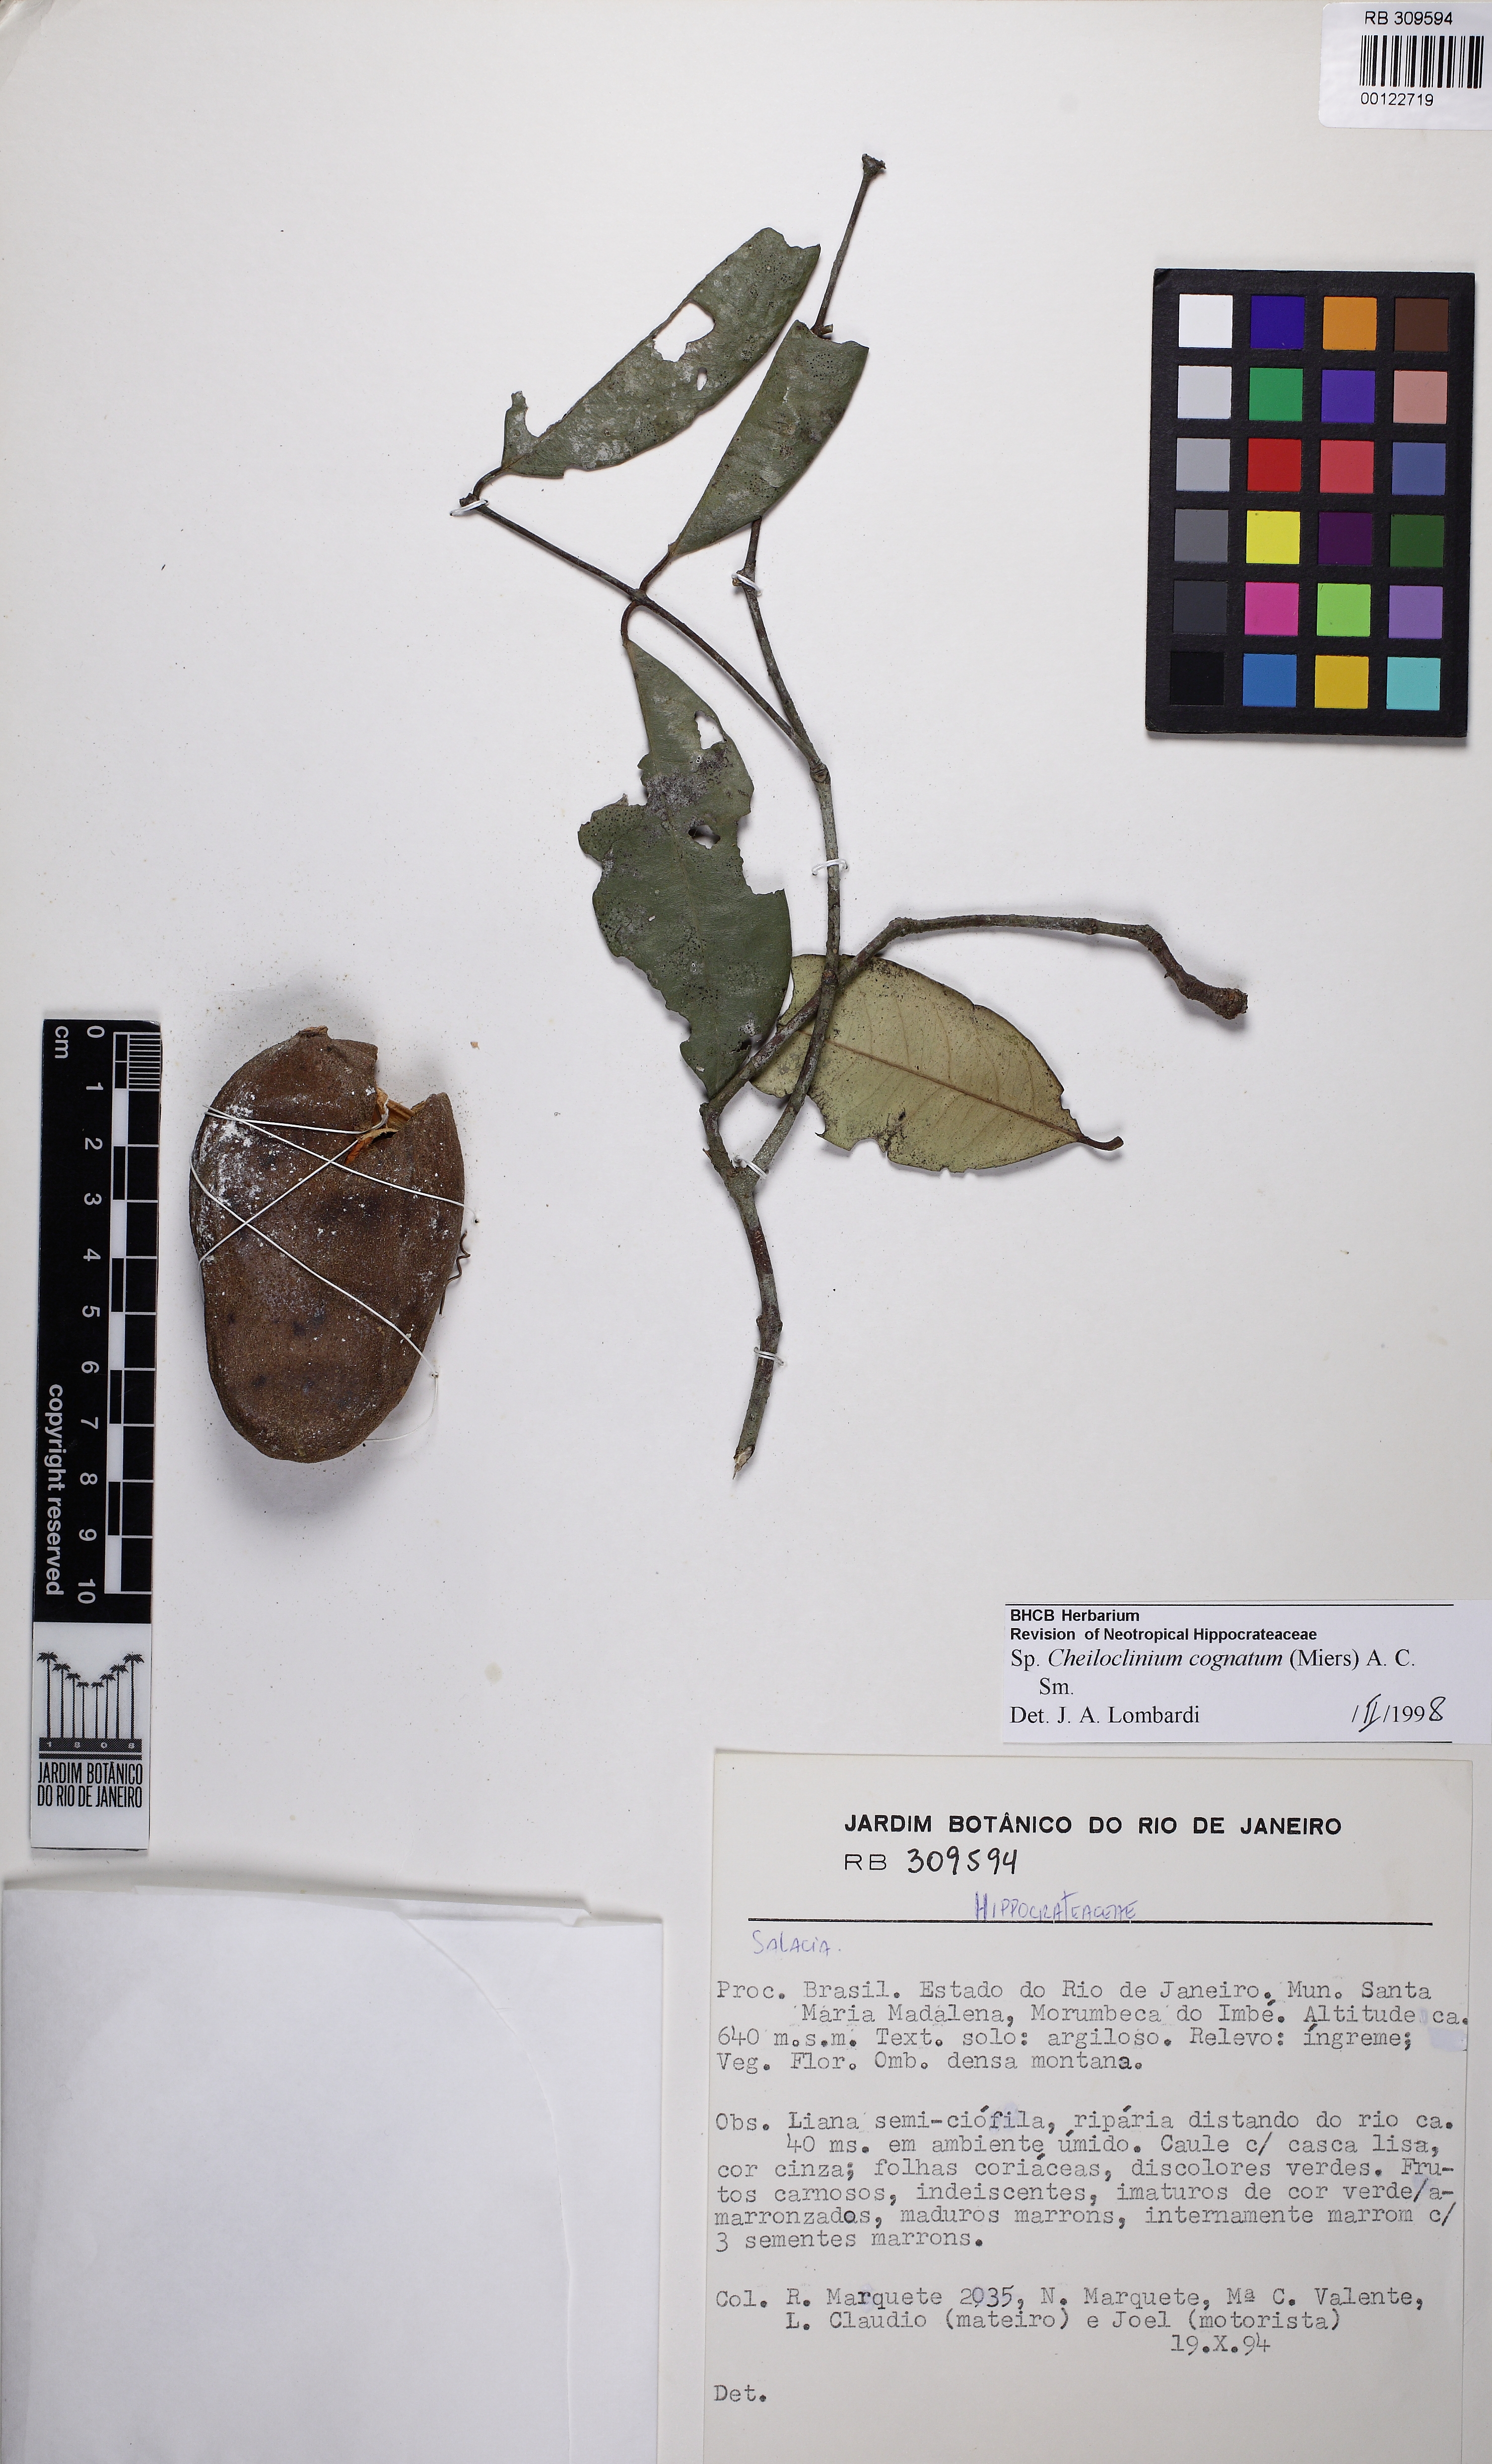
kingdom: Plantae
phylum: Tracheophyta
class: Magnoliopsida
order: Celastrales
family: Celastraceae
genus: Cheiloclinium
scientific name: Cheiloclinium cognatum
